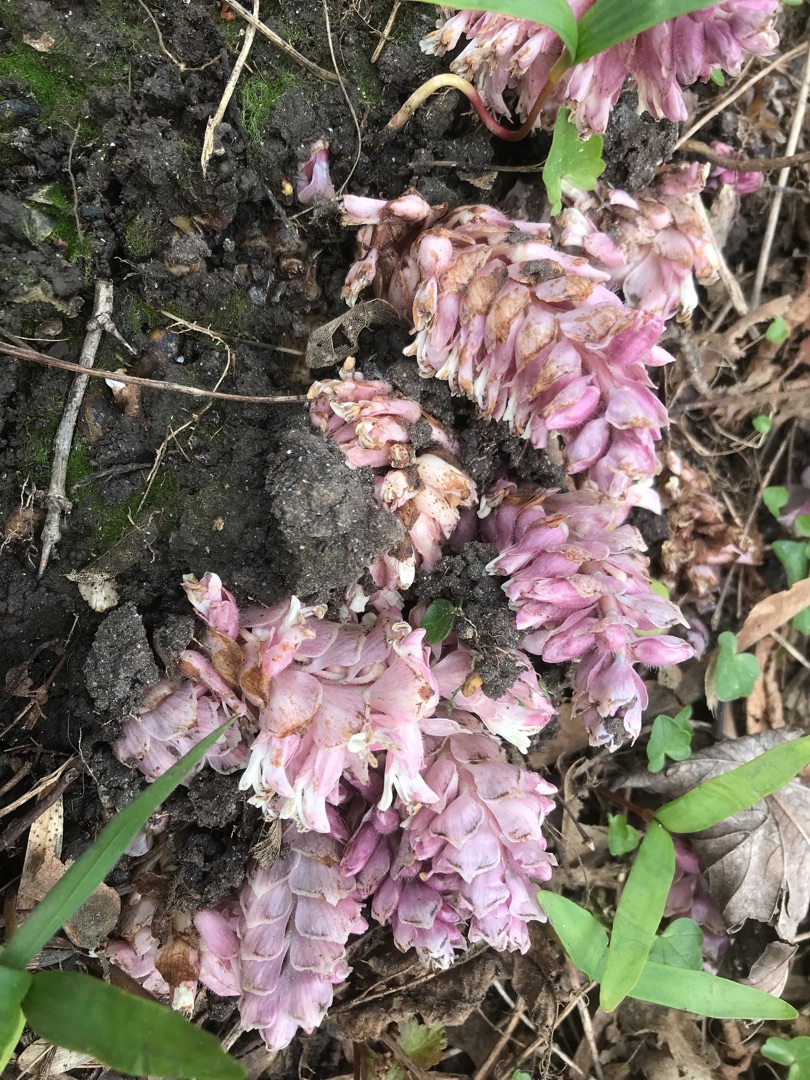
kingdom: Plantae
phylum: Tracheophyta
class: Magnoliopsida
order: Lamiales
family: Orobanchaceae
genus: Lathraea
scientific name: Lathraea squamaria
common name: Skælrod
